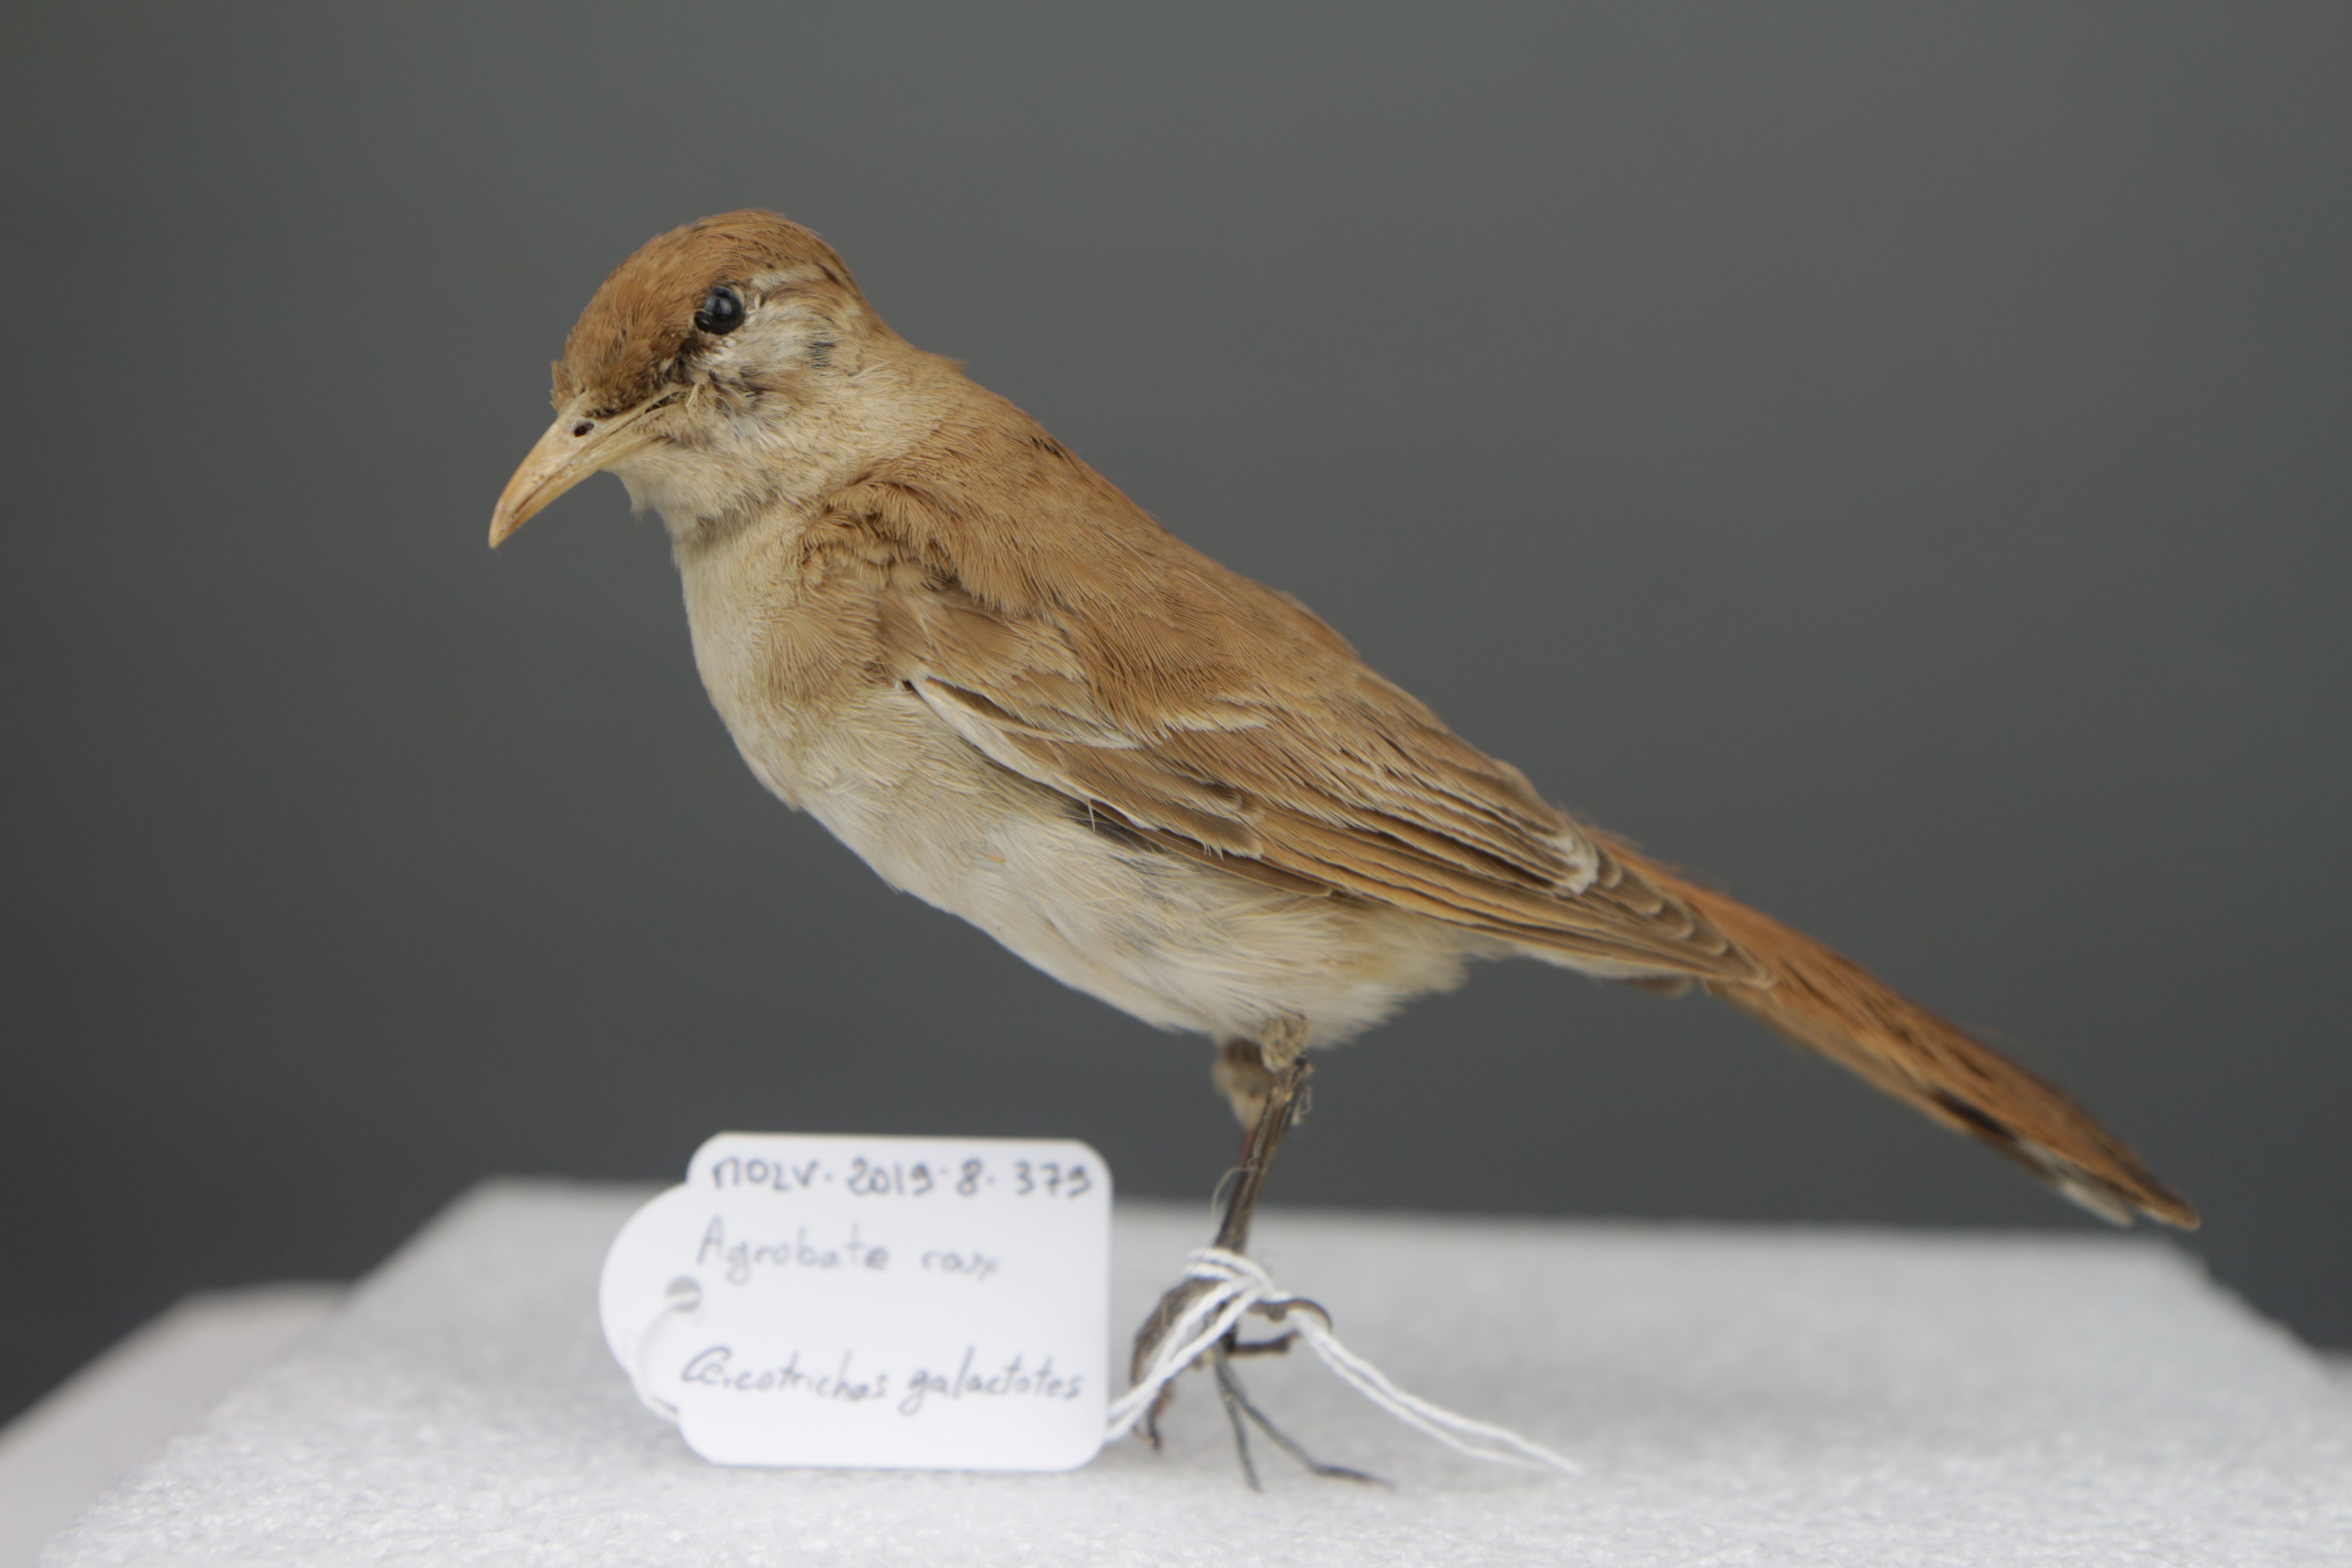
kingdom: Animalia
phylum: Chordata
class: Aves
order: Passeriformes
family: Muscicapidae
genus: Erythropygia
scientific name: Erythropygia galactotes
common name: Rufous-tailed scrub robin
